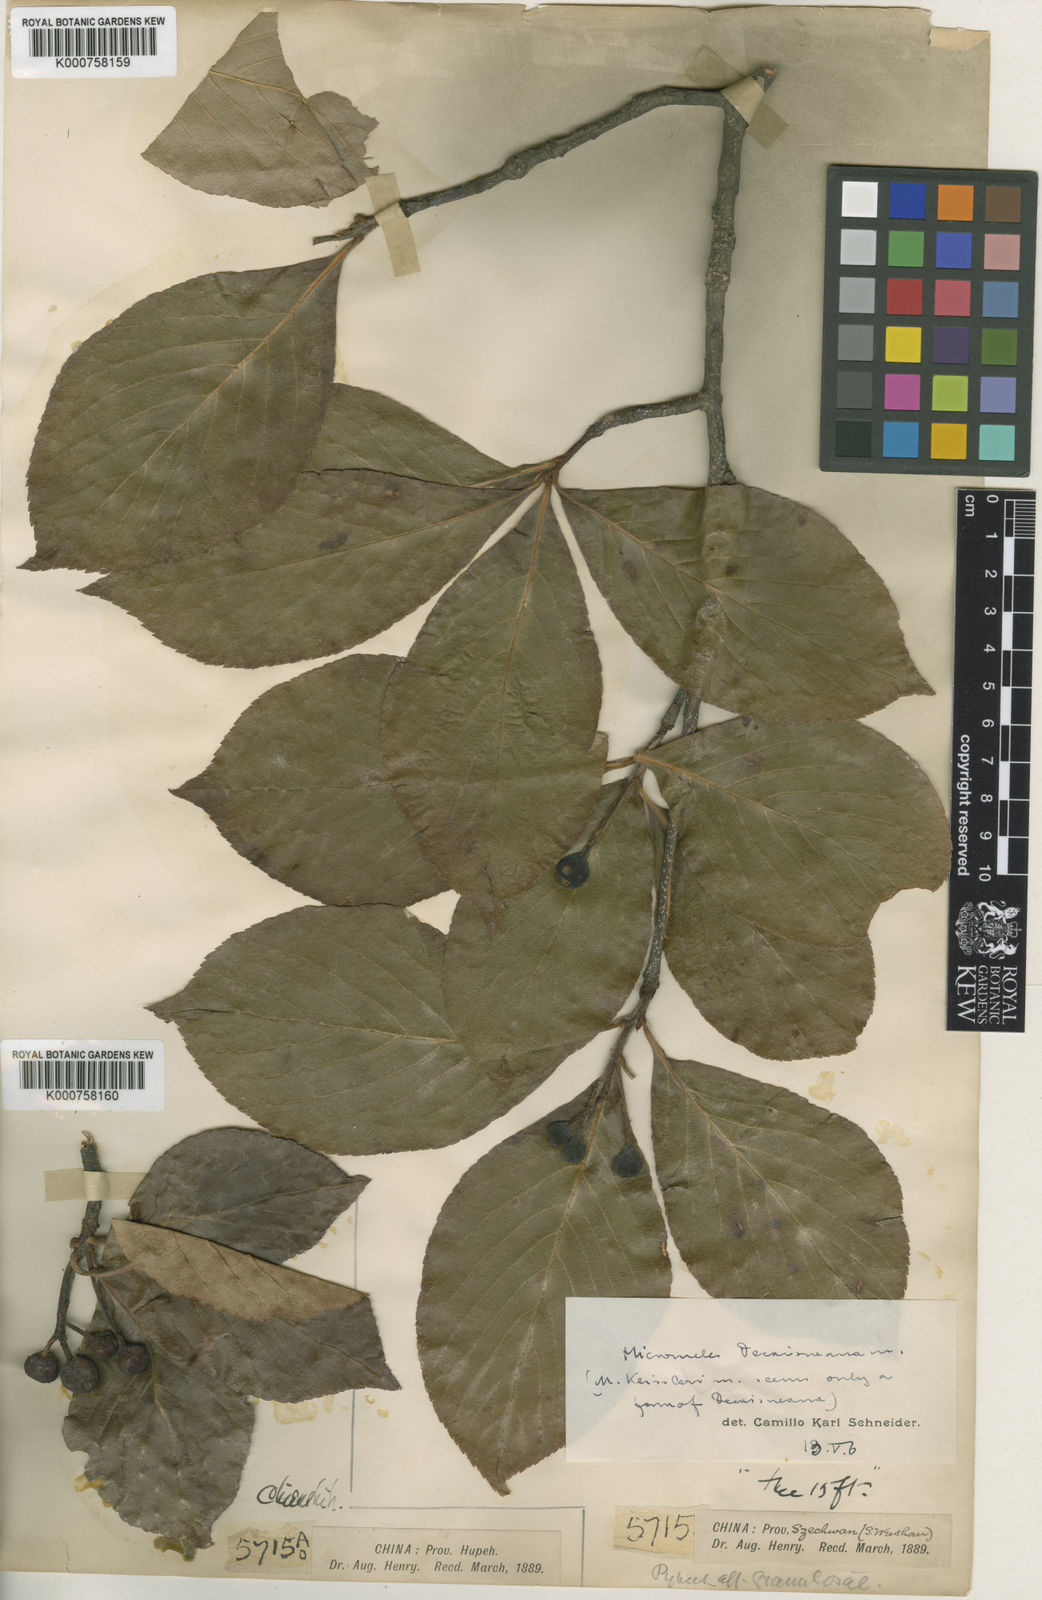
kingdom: Plantae
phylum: Tracheophyta
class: Magnoliopsida
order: Rosales
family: Rosaceae
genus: Sorbus
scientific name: Sorbus decaisneana
